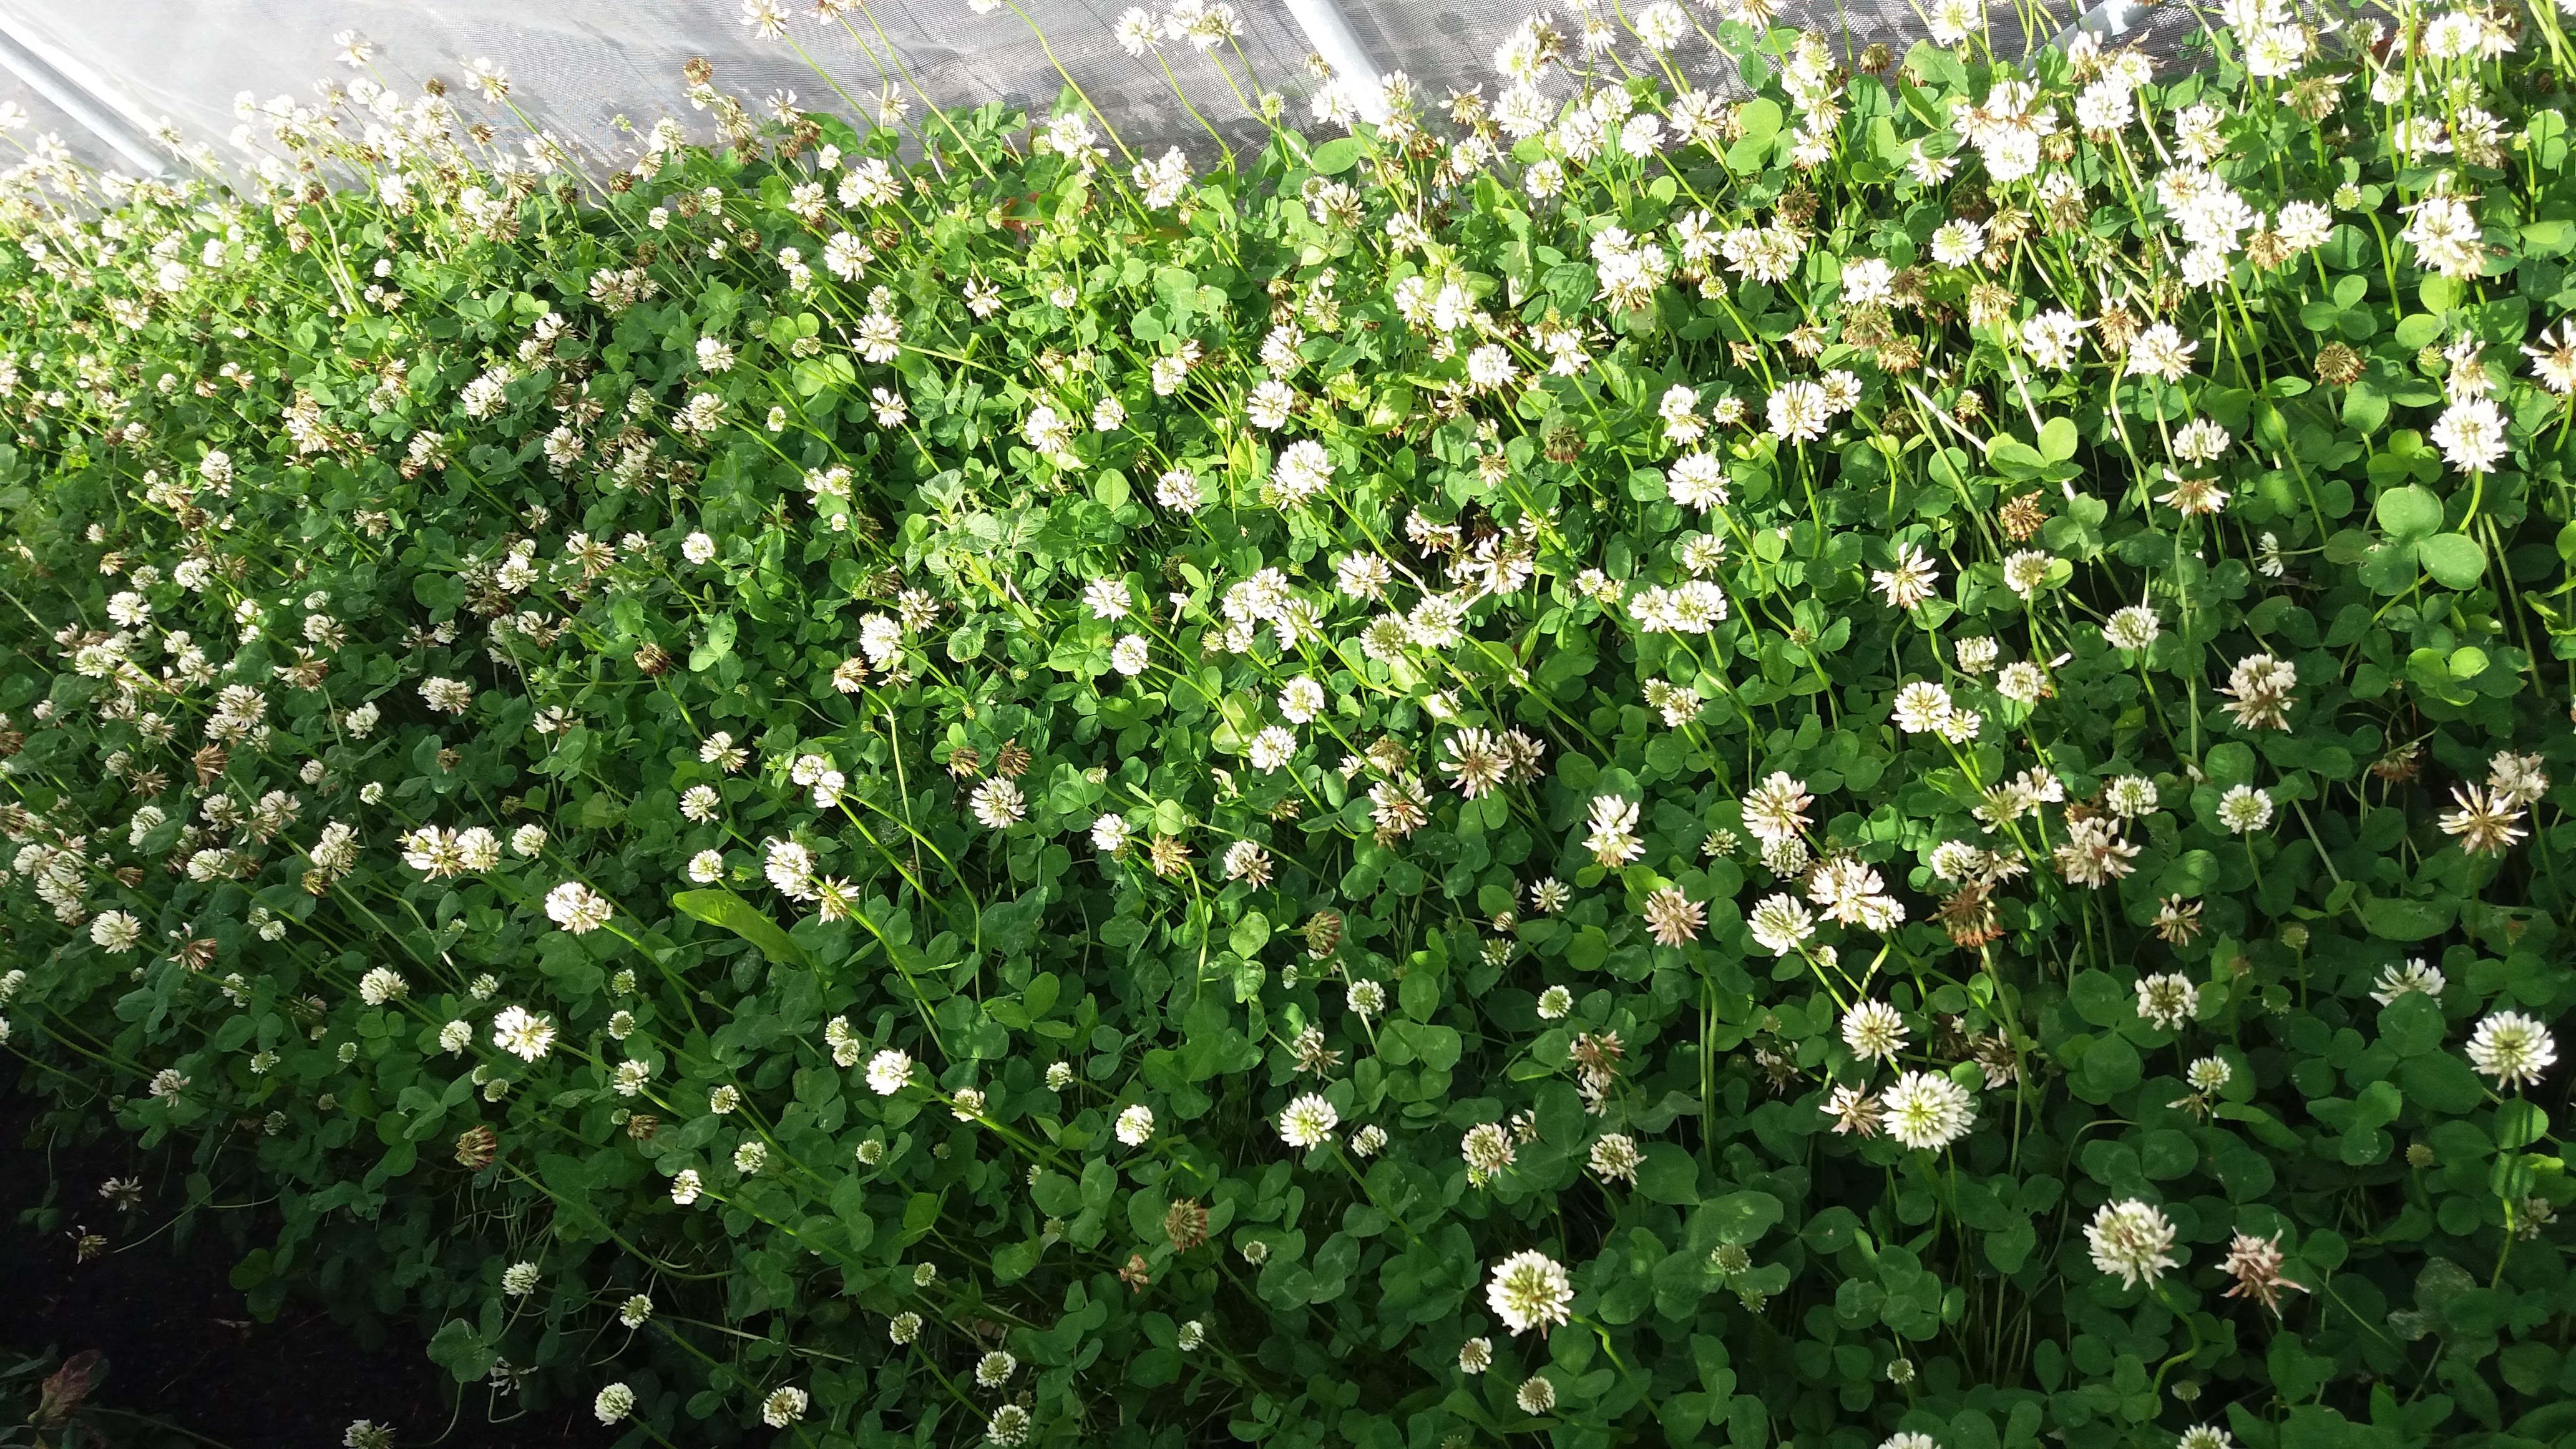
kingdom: Plantae
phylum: Tracheophyta
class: Magnoliopsida
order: Fabales
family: Fabaceae
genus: Trifolium
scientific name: Trifolium repens
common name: White clover
